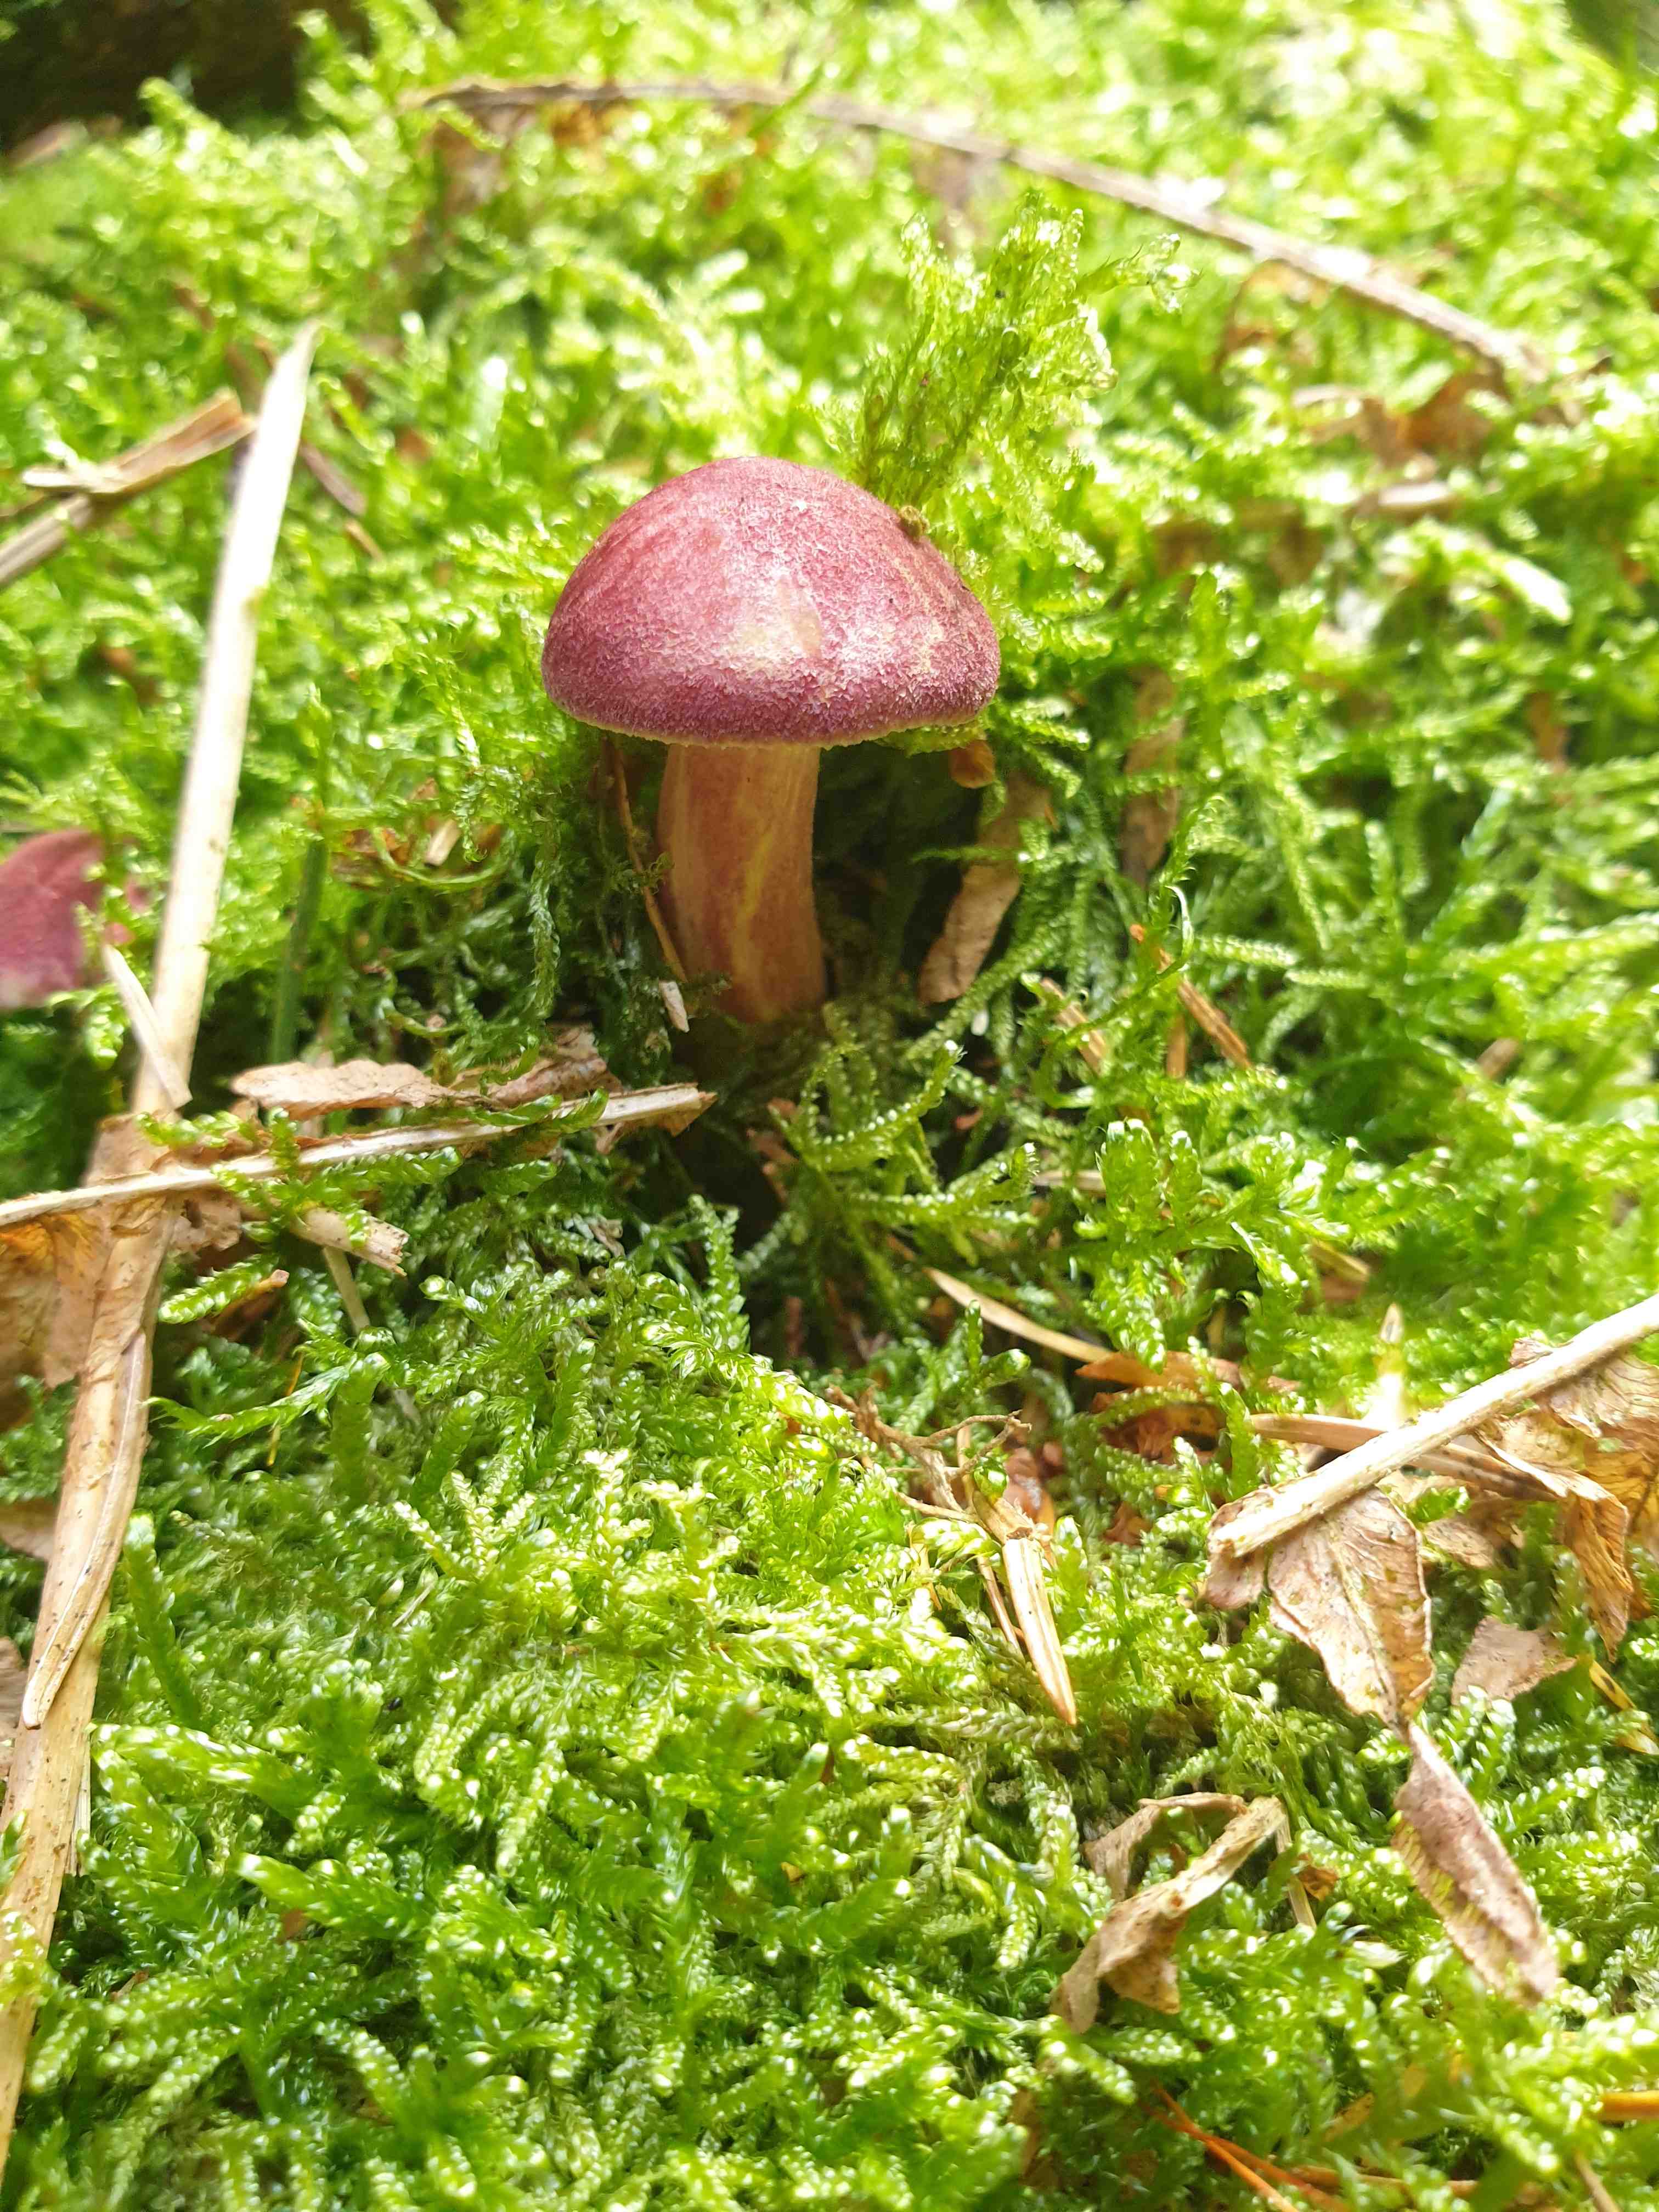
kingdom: Fungi
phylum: Basidiomycota
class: Agaricomycetes
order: Agaricales
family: Tricholomataceae
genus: Tricholomopsis
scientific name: Tricholomopsis rutilans
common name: purpur-væbnerhat
